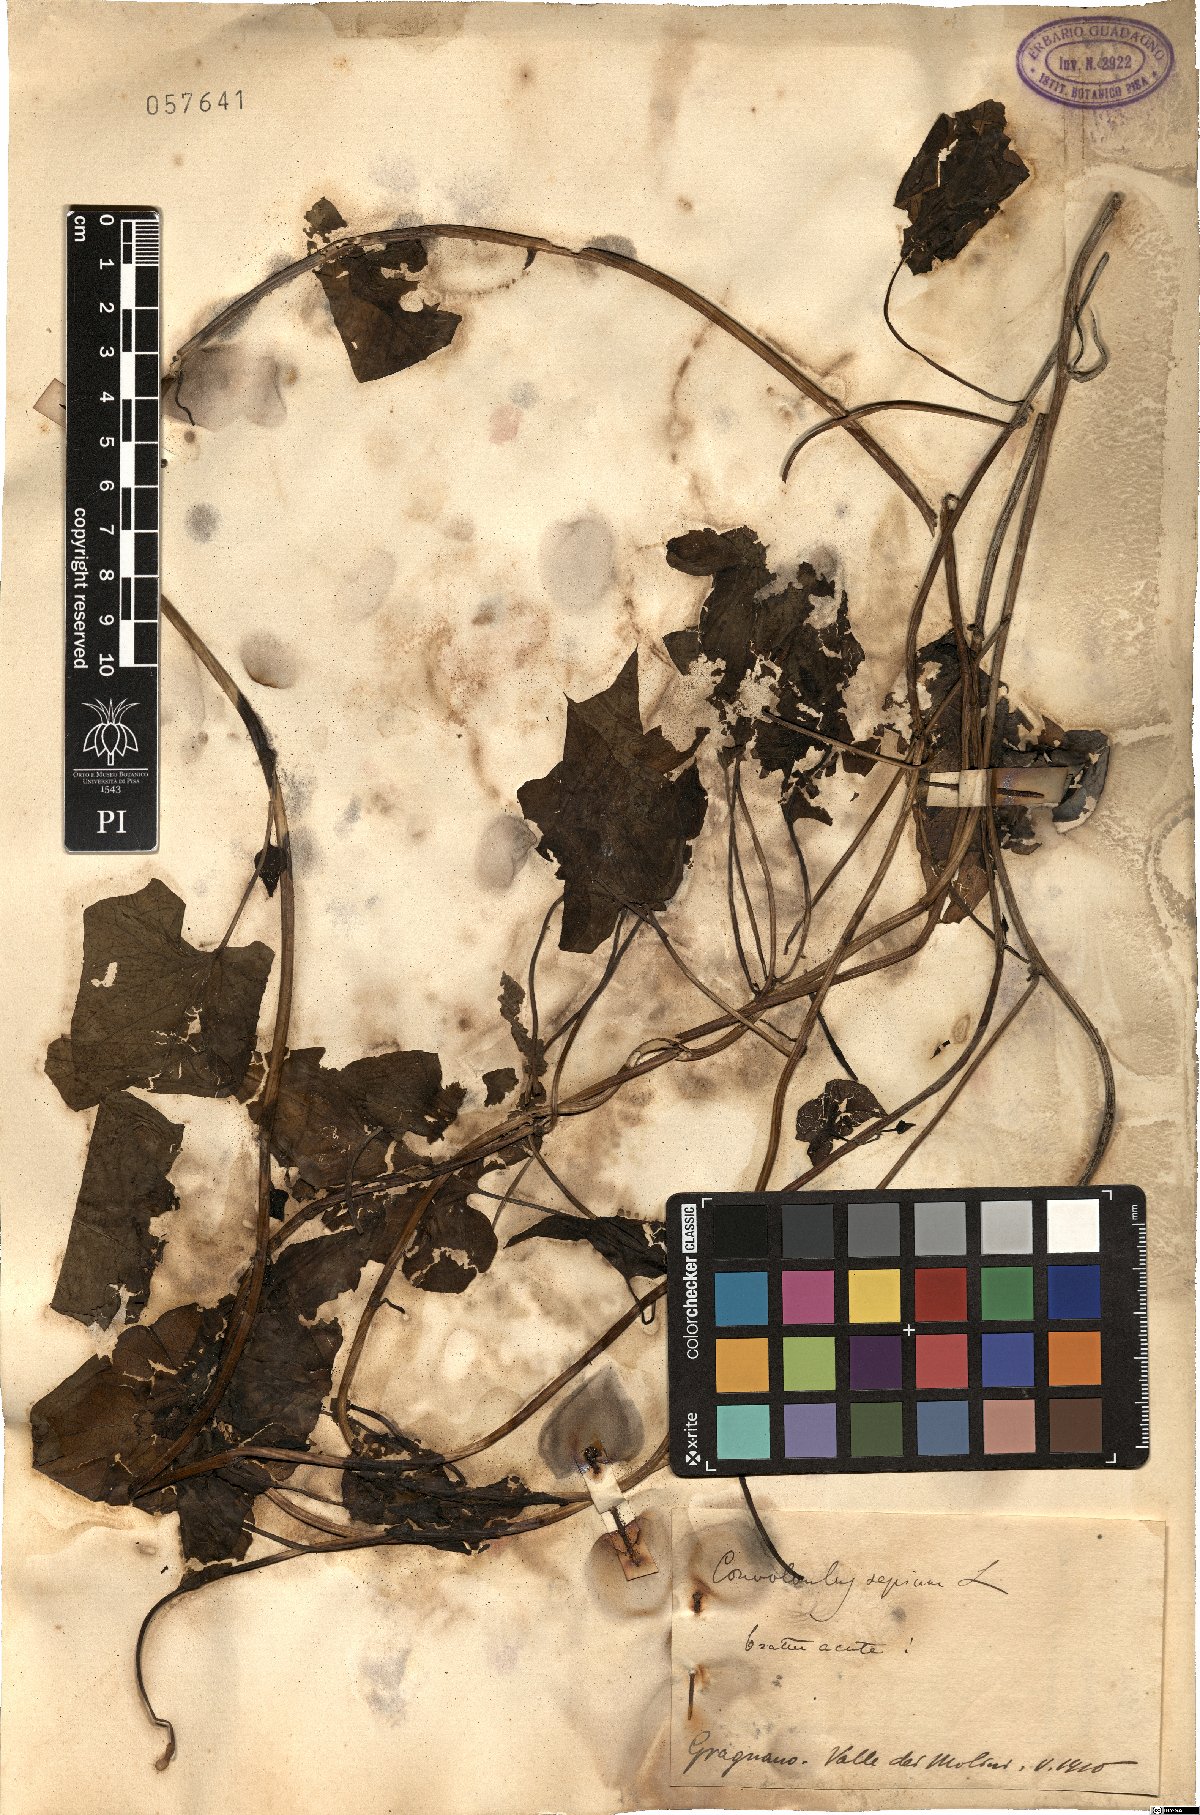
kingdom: Plantae
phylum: Tracheophyta
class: Magnoliopsida
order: Solanales
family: Convolvulaceae
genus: Calystegia
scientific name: Calystegia sepium
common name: Hedge bindweed
